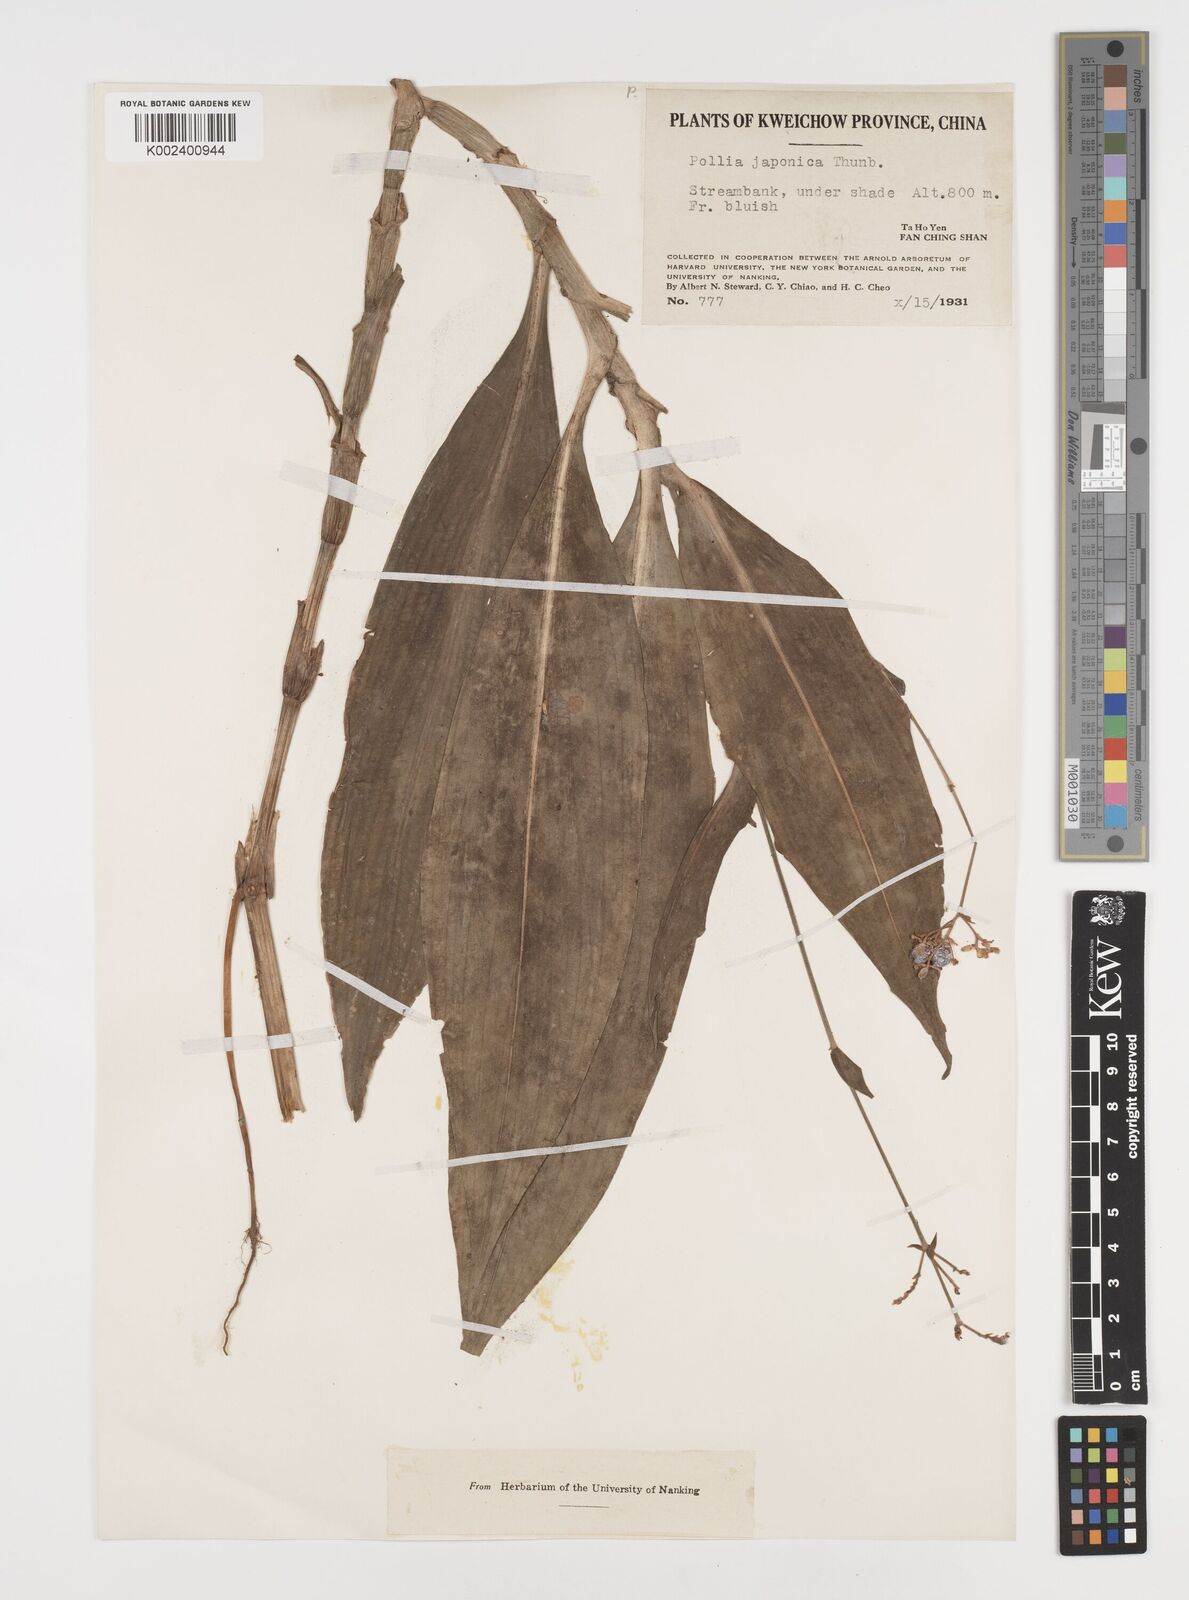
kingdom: Plantae
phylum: Tracheophyta
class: Liliopsida
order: Commelinales
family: Commelinaceae
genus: Pollia
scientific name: Pollia japonica
